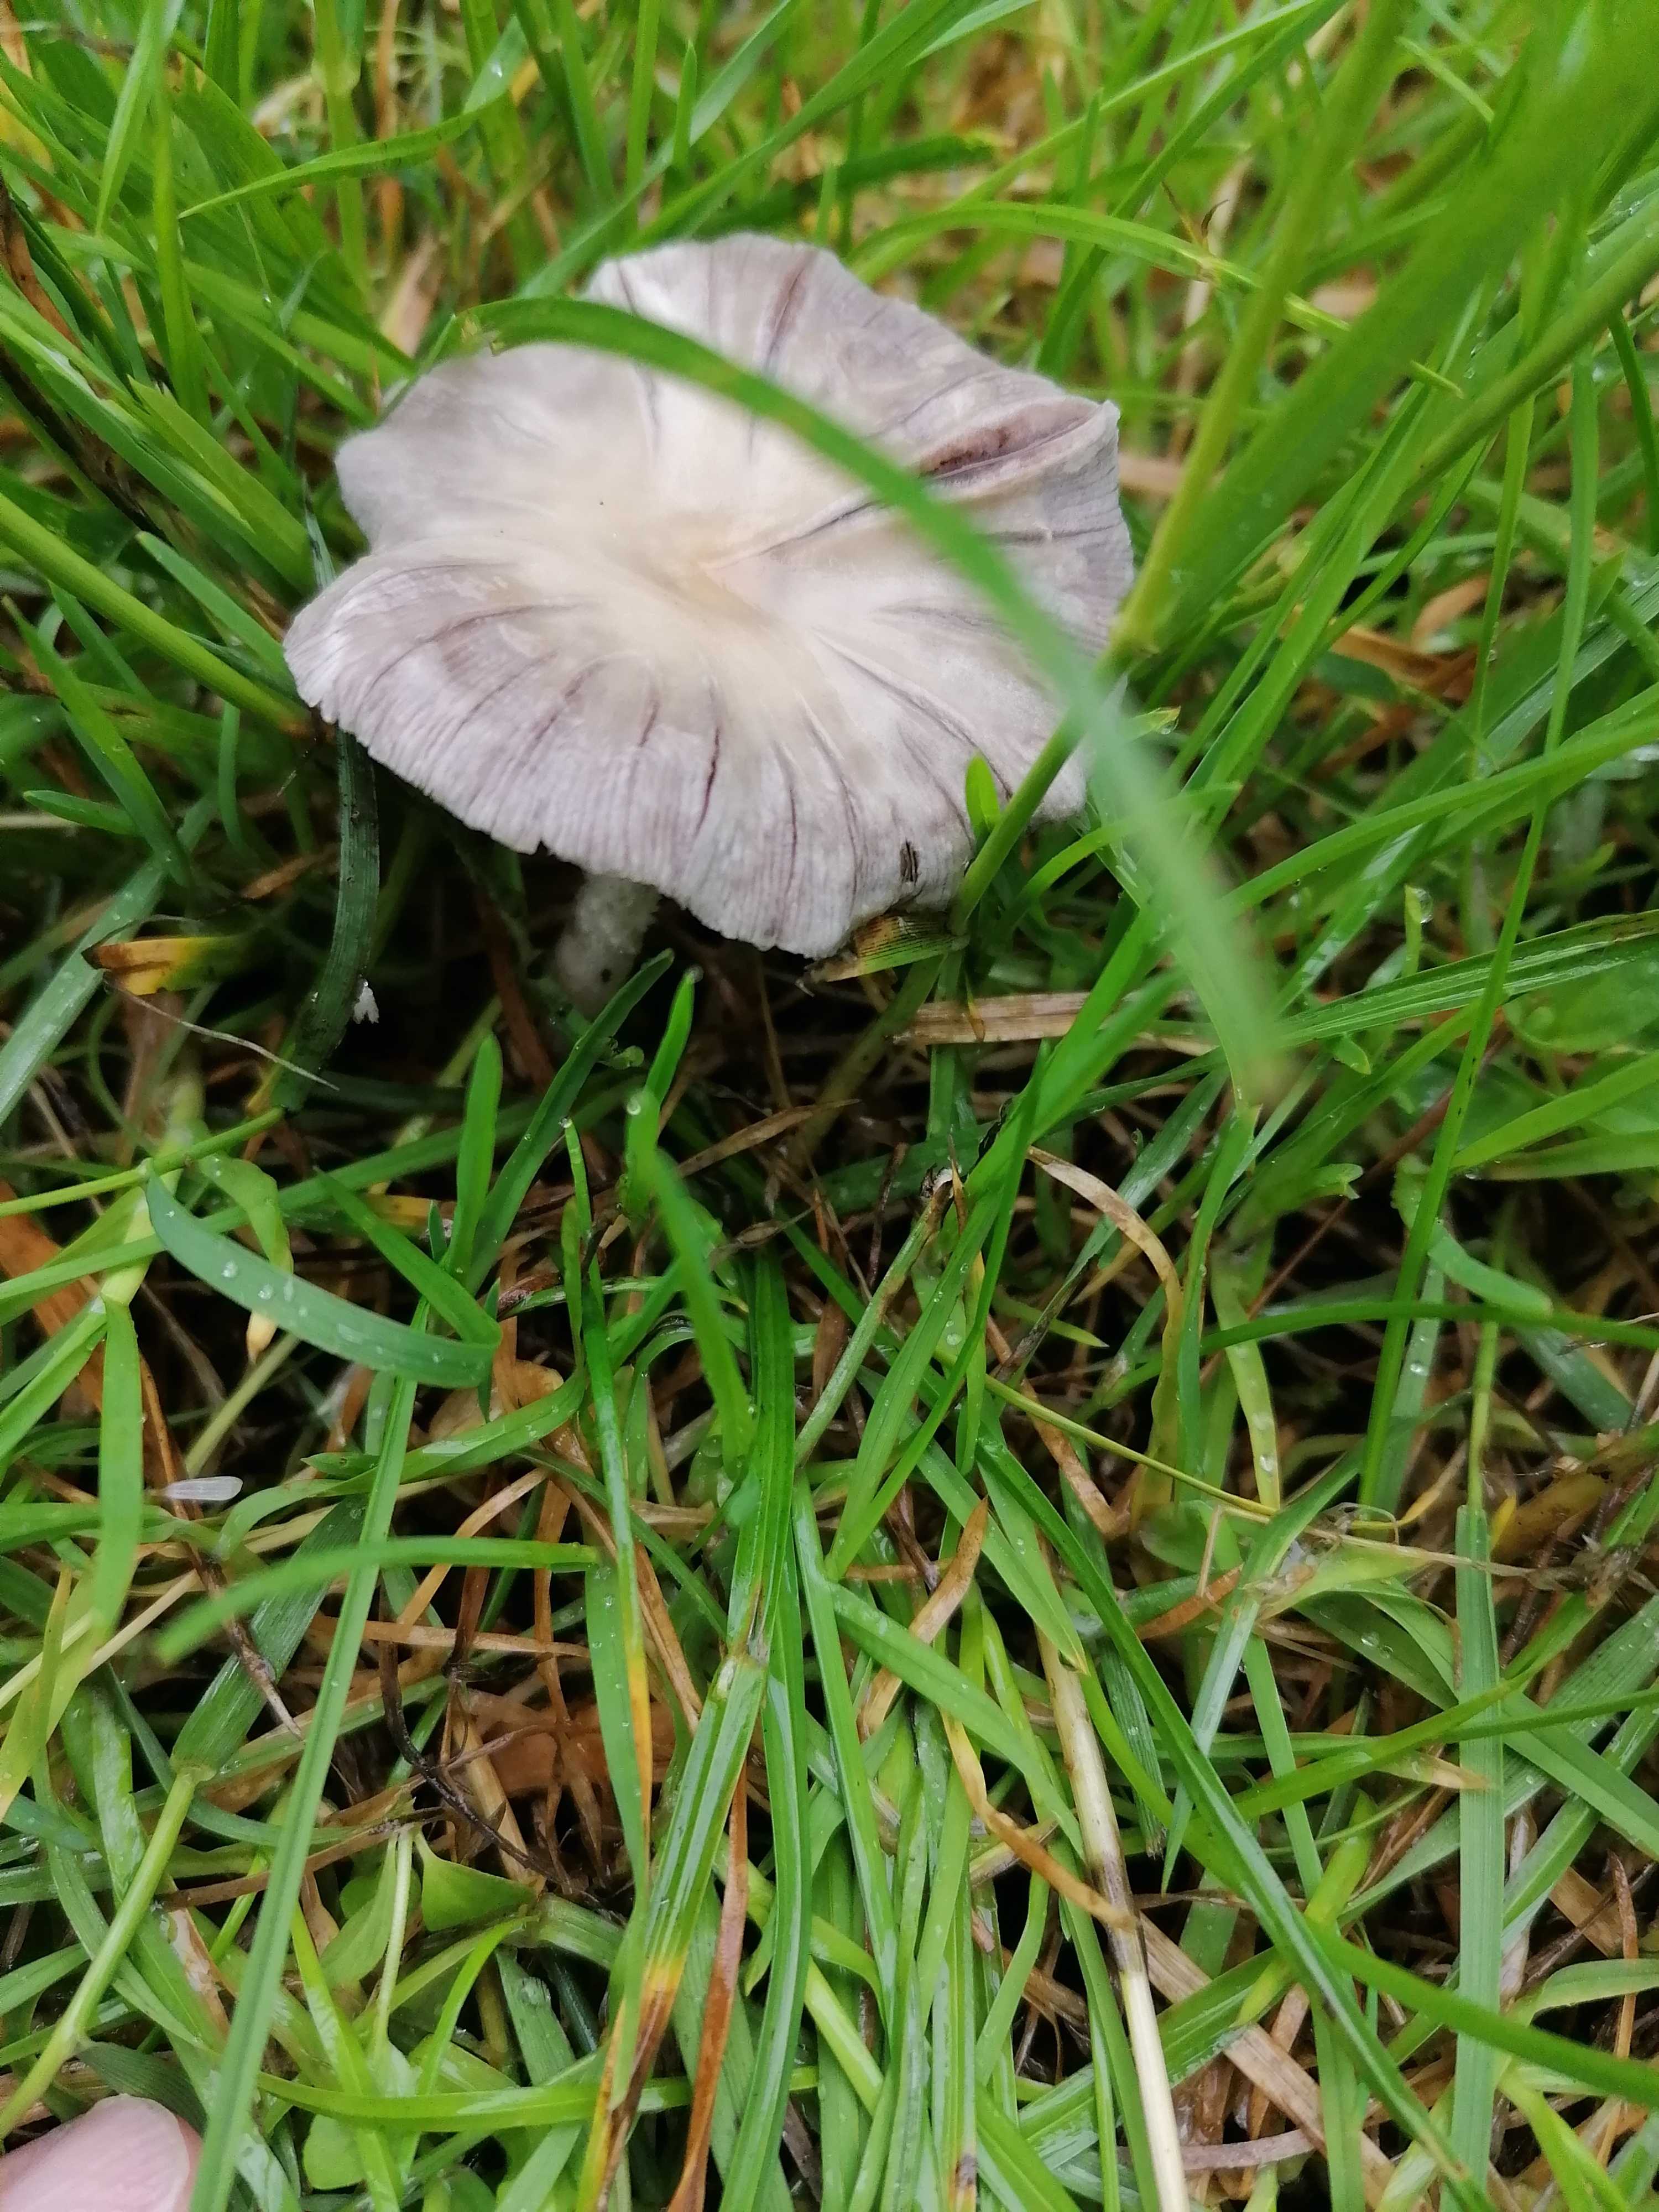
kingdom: Fungi
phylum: Basidiomycota
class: Agaricomycetes
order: Agaricales
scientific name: Agaricales
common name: champignonordenen
